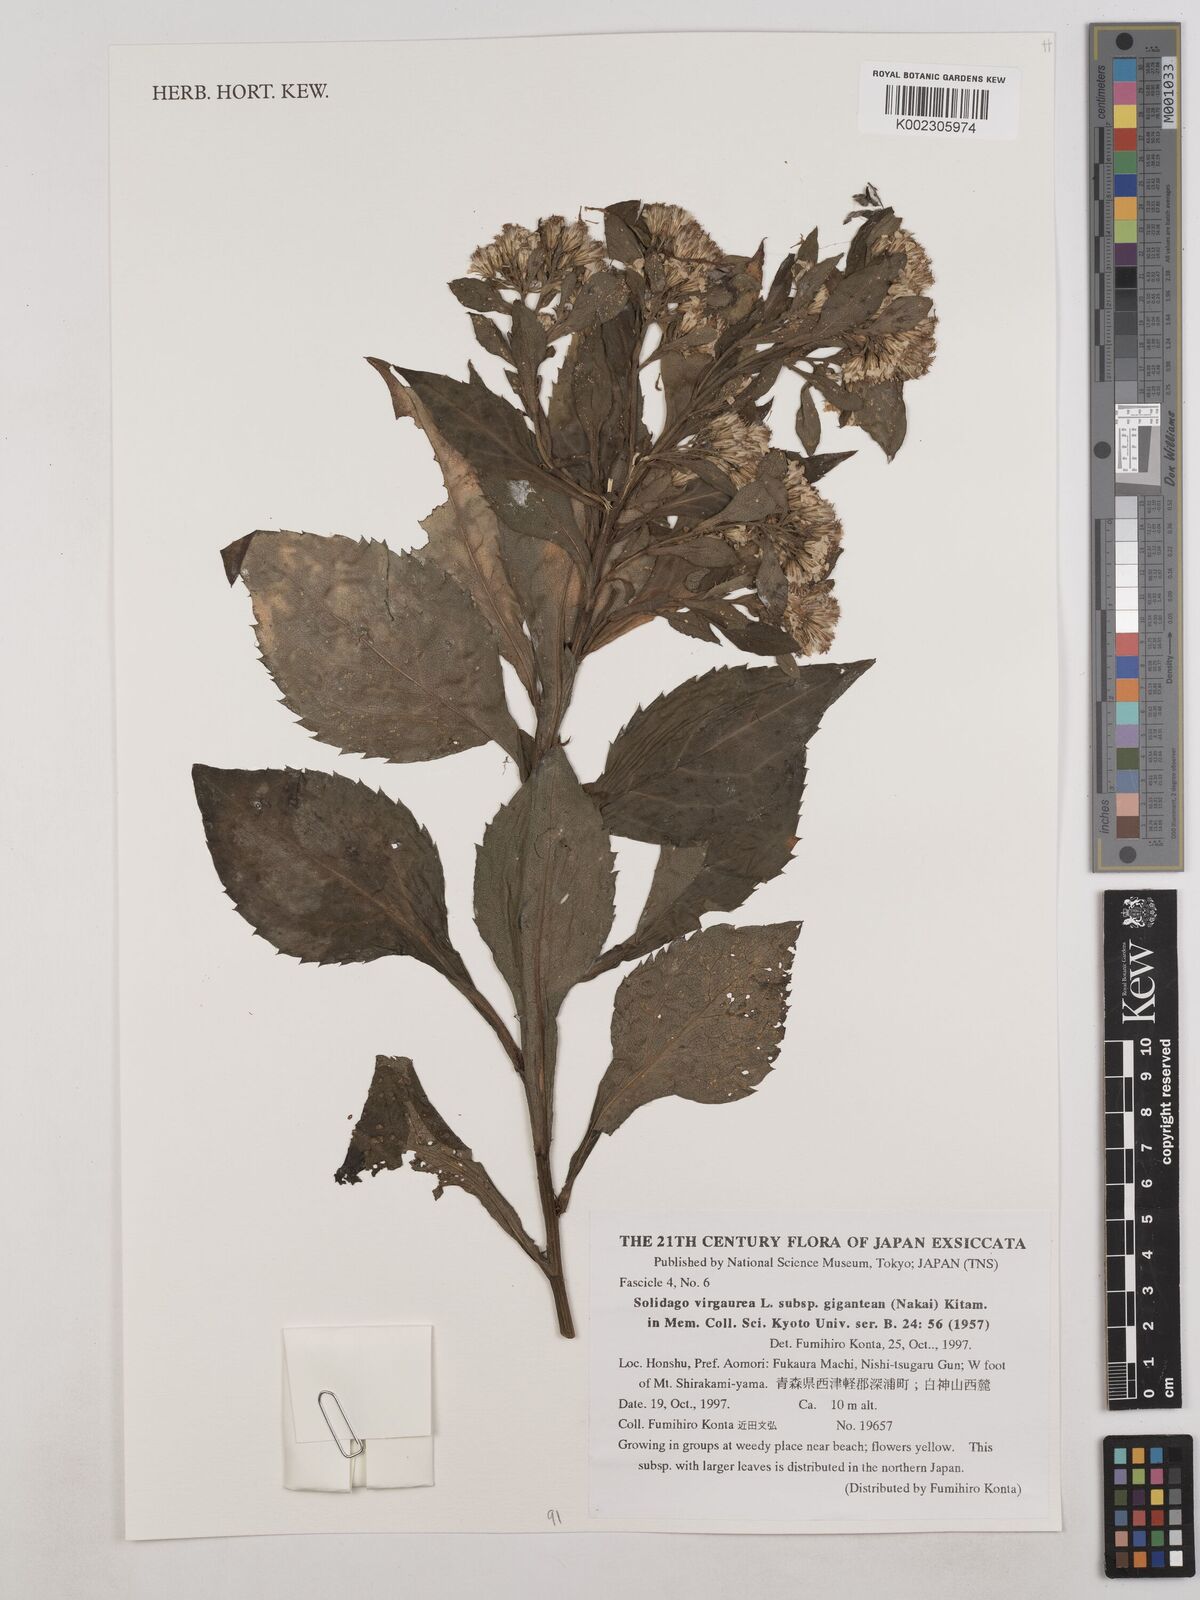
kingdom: Plantae
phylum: Tracheophyta
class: Magnoliopsida
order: Asterales
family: Asteraceae
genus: Solidago
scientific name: Solidago nipponica
